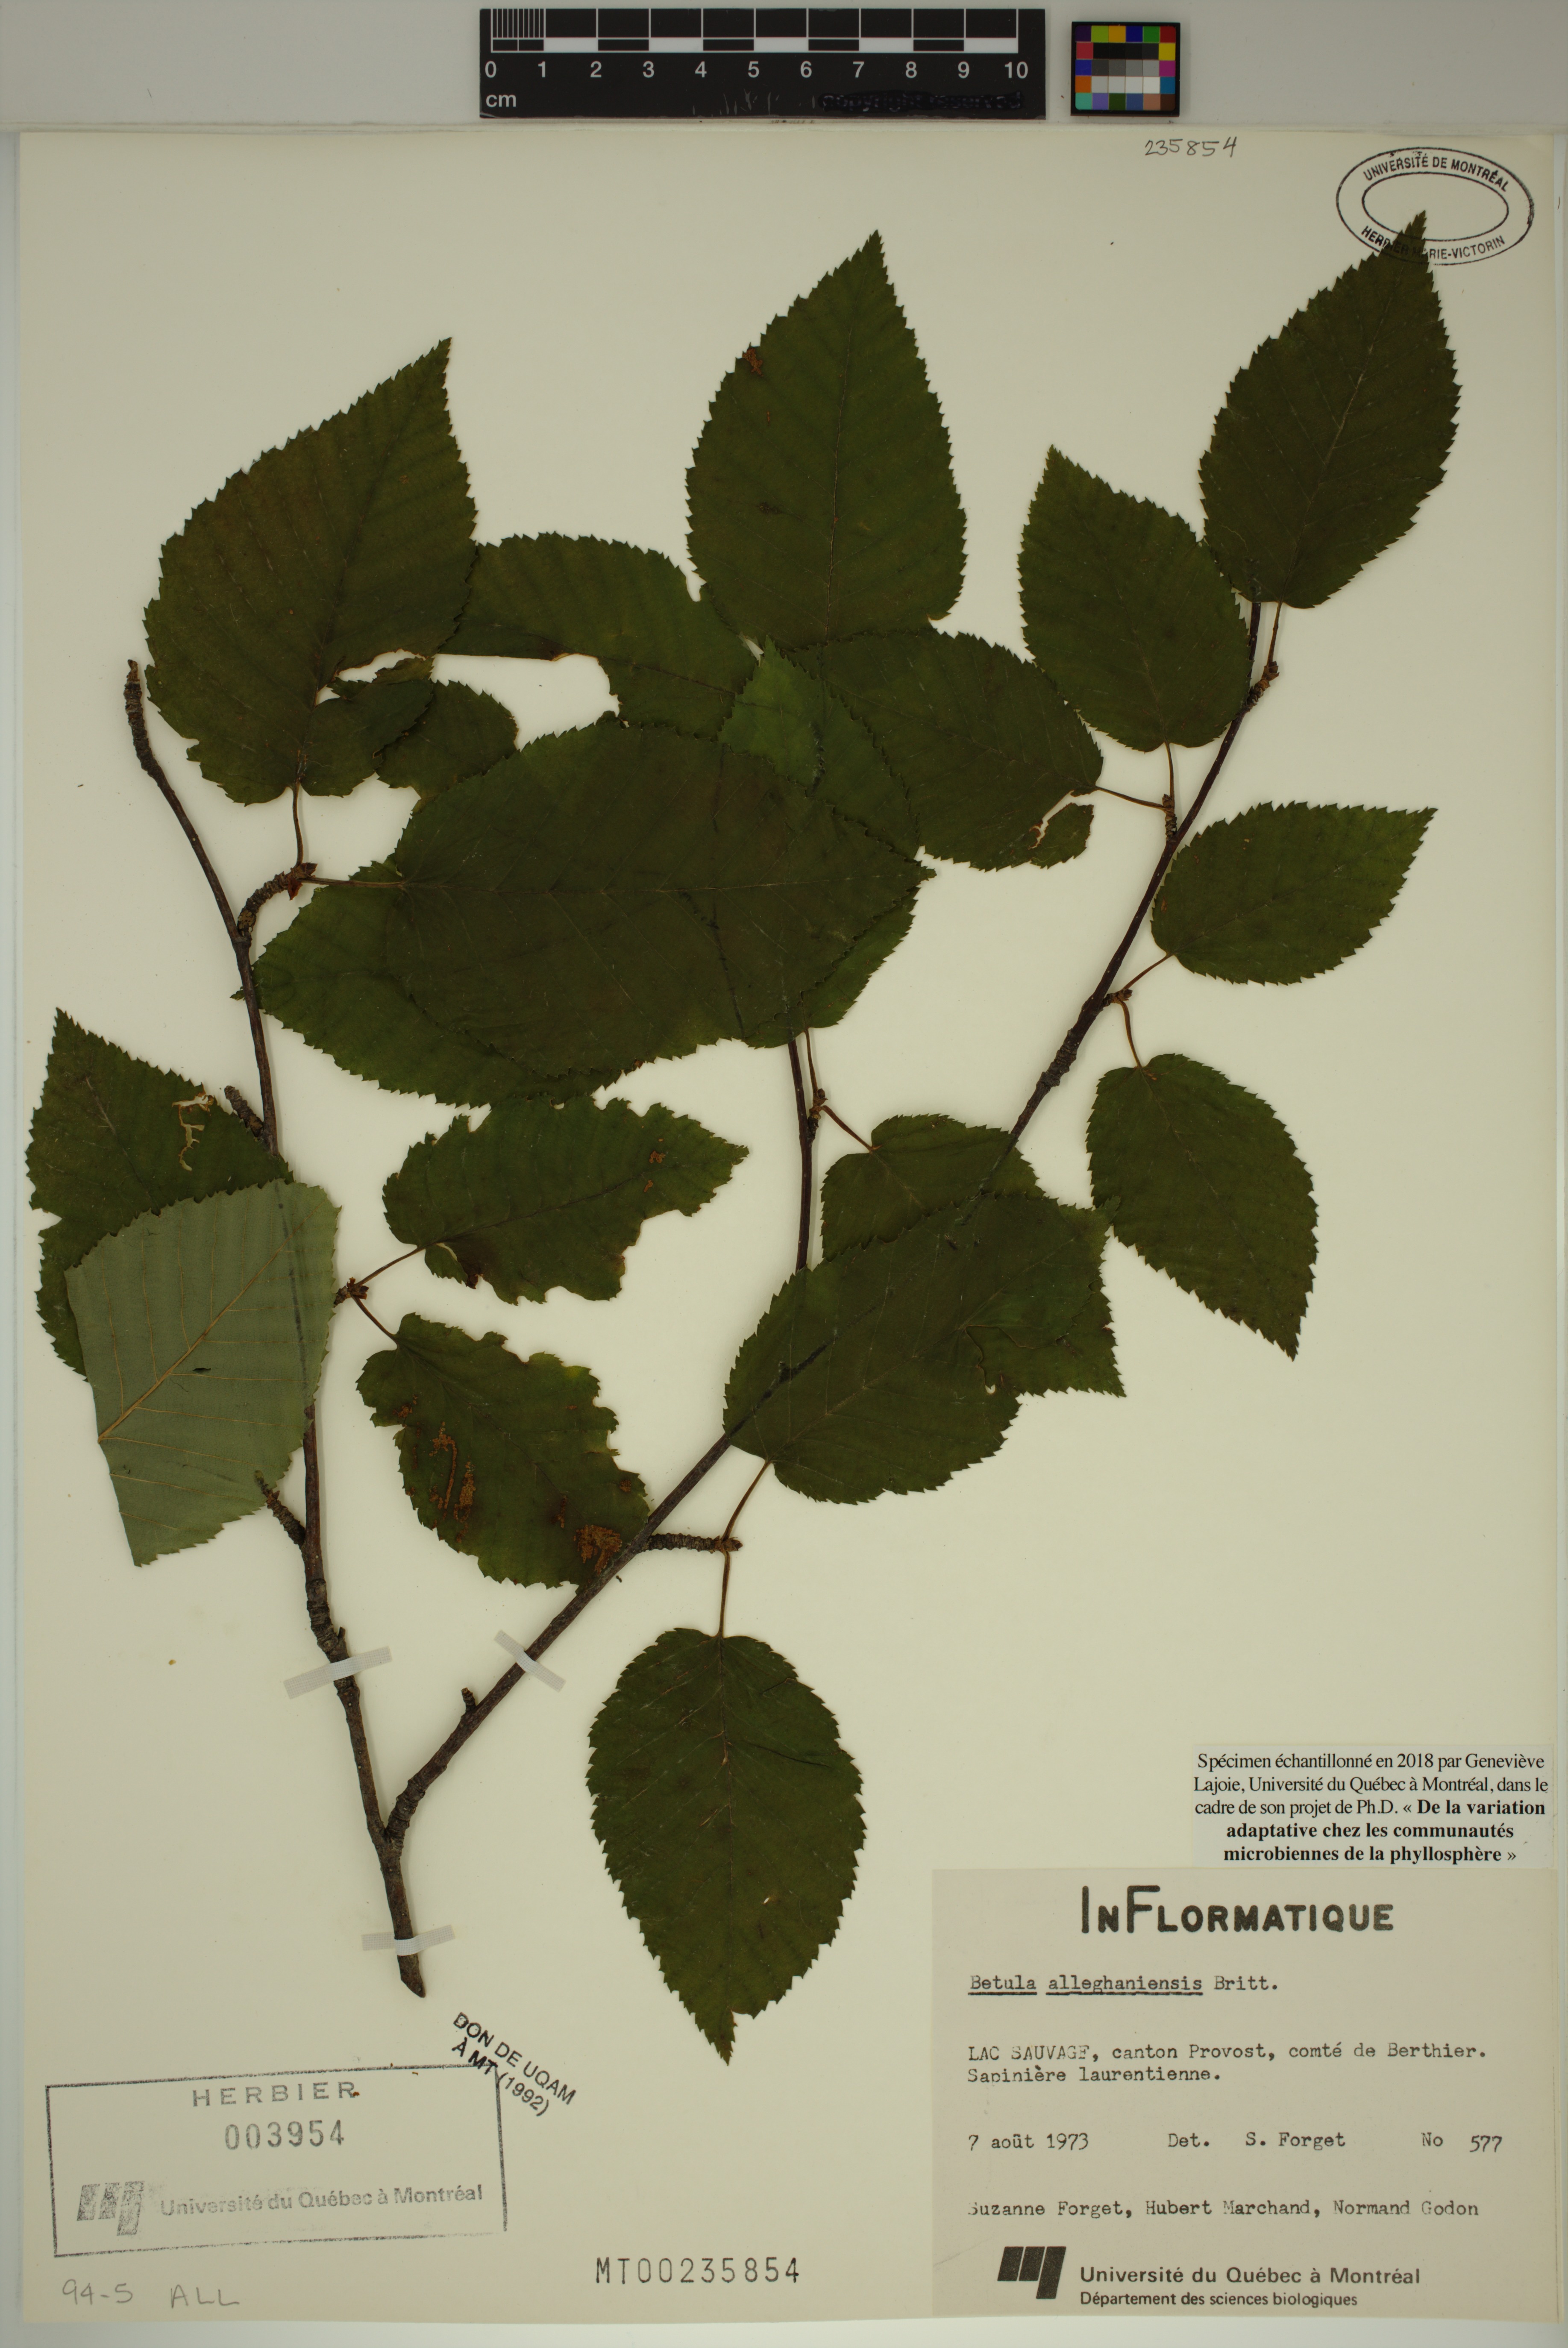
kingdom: Plantae
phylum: Tracheophyta
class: Magnoliopsida
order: Fagales
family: Betulaceae
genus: Betula
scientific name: Betula alleghaniensis
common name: Yellow birch
